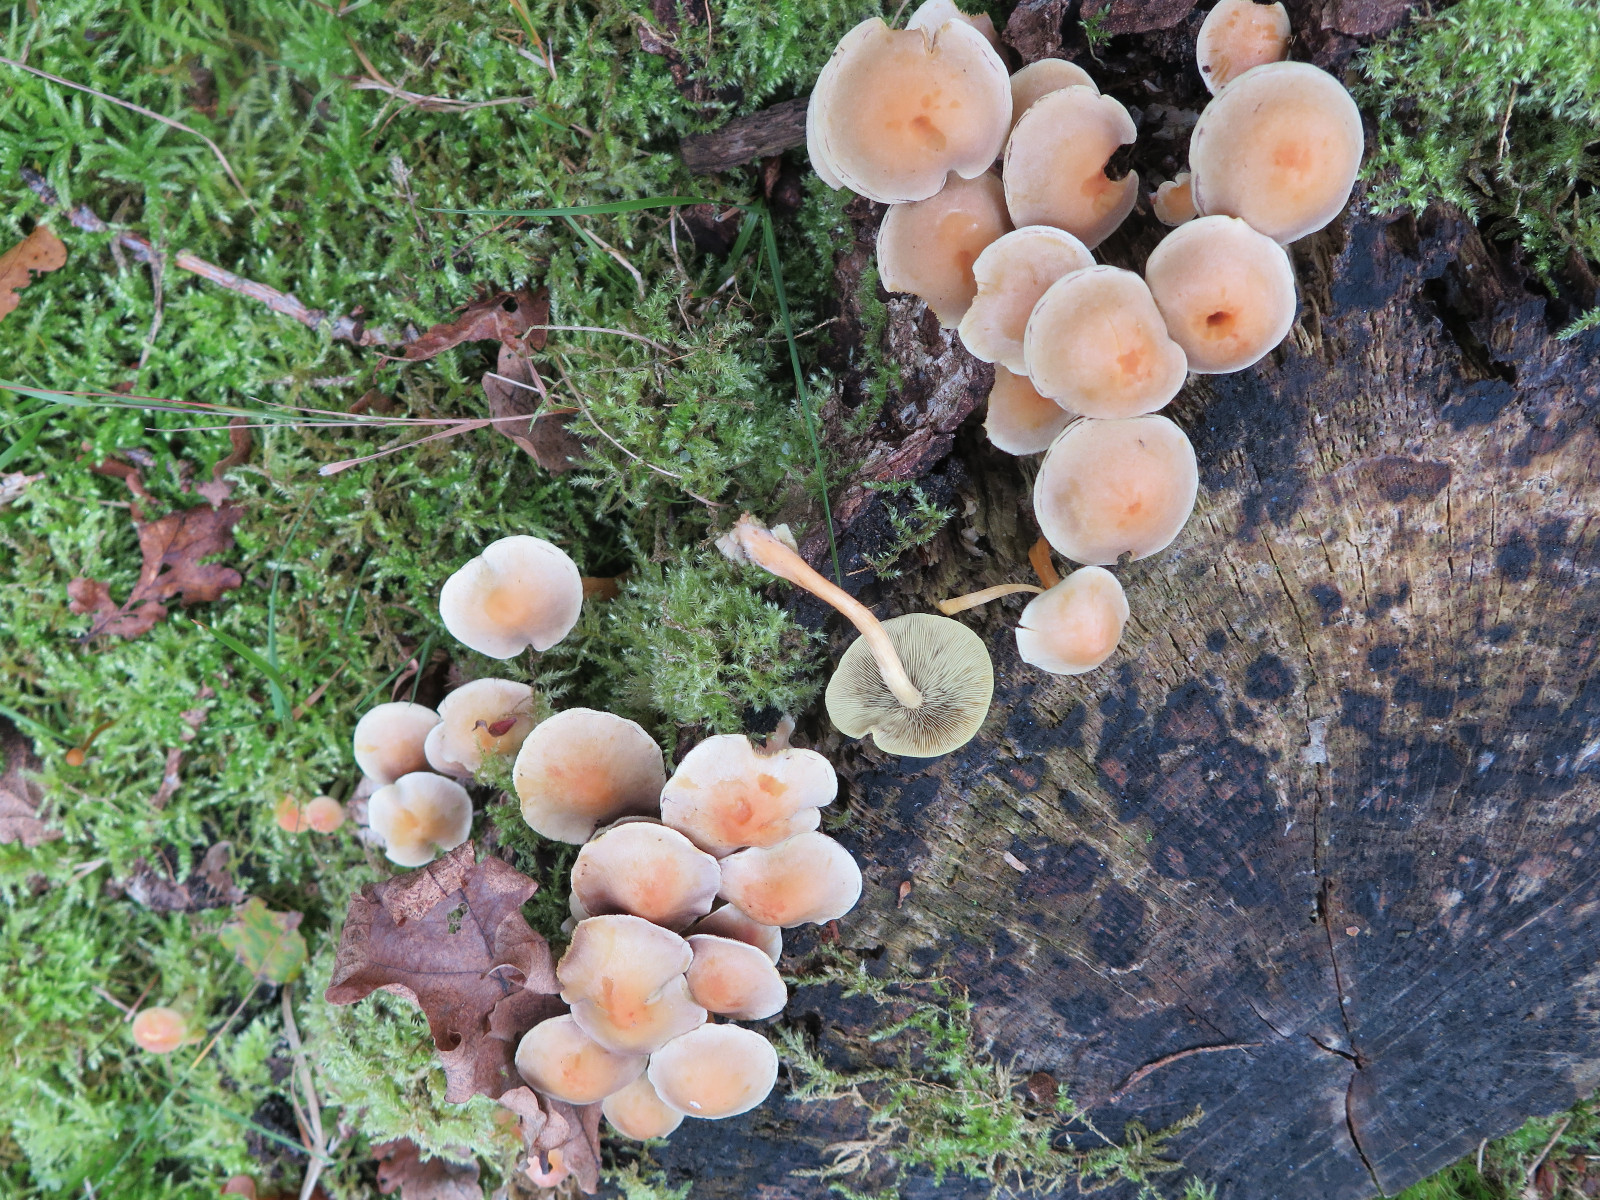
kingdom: Fungi
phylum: Basidiomycota
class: Agaricomycetes
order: Agaricales
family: Strophariaceae
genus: Hypholoma
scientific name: Hypholoma fasciculare
